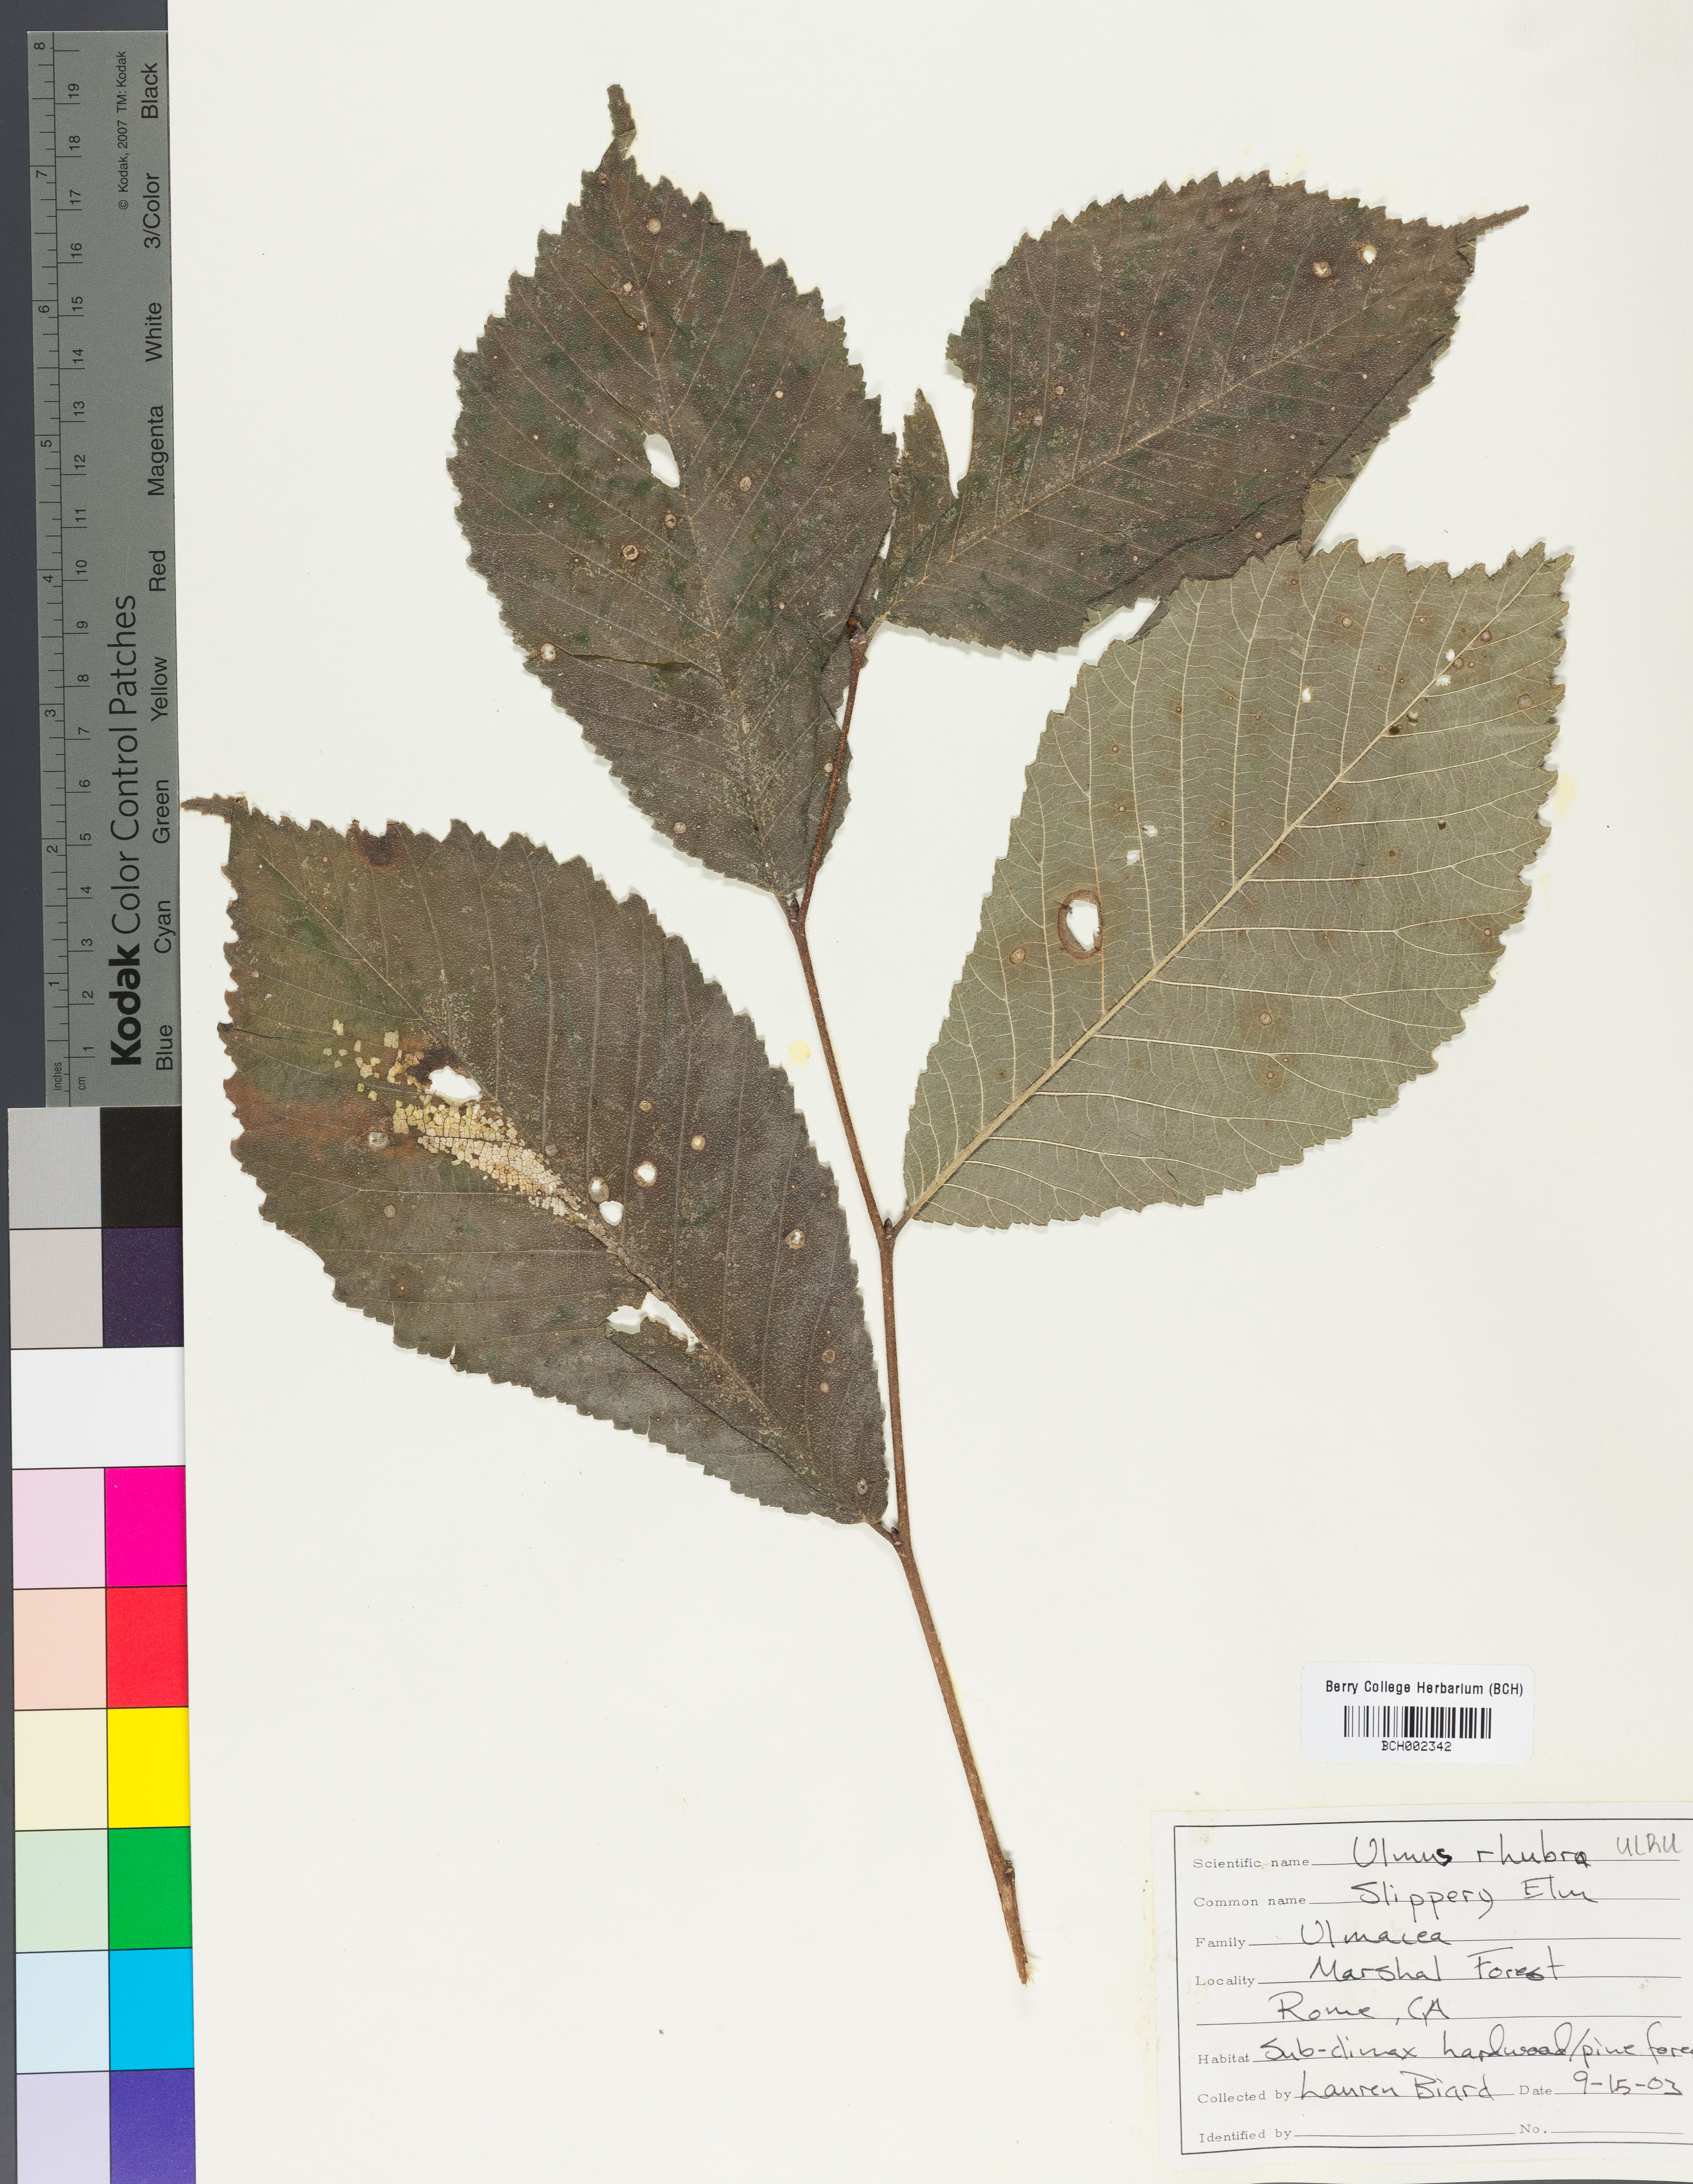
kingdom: Plantae
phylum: Tracheophyta
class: Magnoliopsida
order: Rosales
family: Ulmaceae
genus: Ulmus
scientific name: Ulmus rubra
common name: Slippery elm
